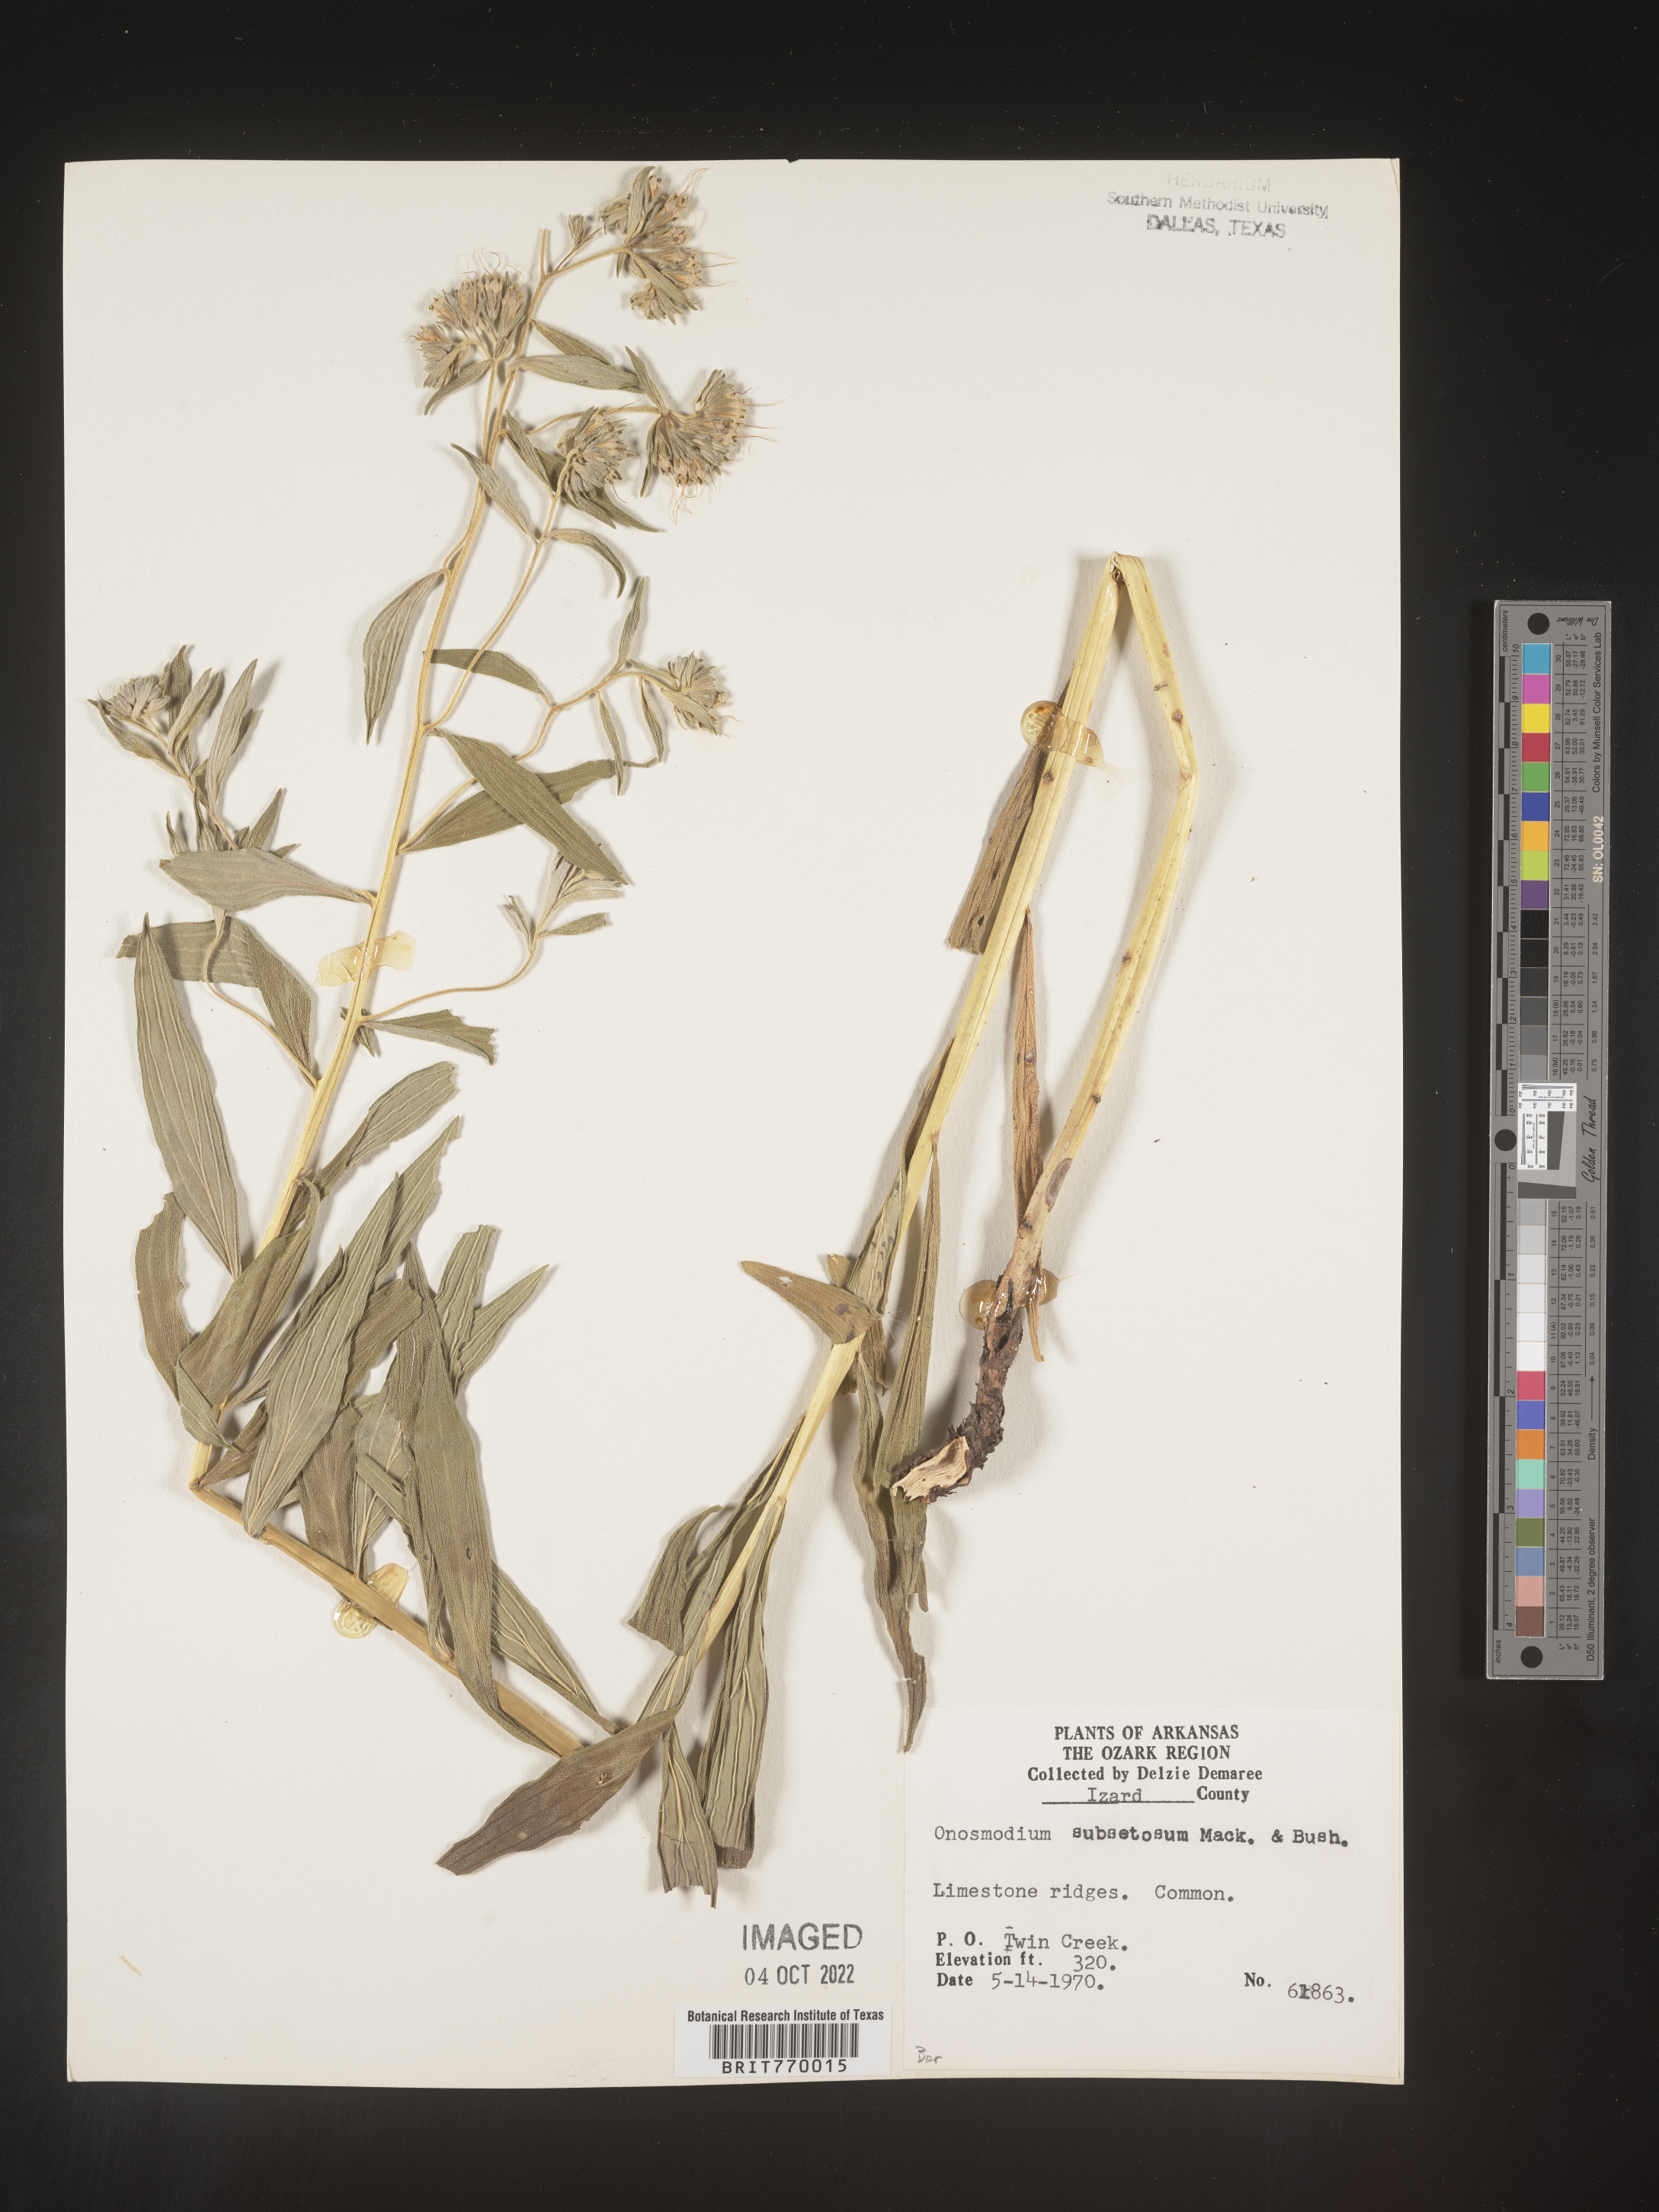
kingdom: Plantae
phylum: Tracheophyta
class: Magnoliopsida
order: Boraginales
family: Boraginaceae
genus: Lithospermum
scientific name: Lithospermum subsetosum
